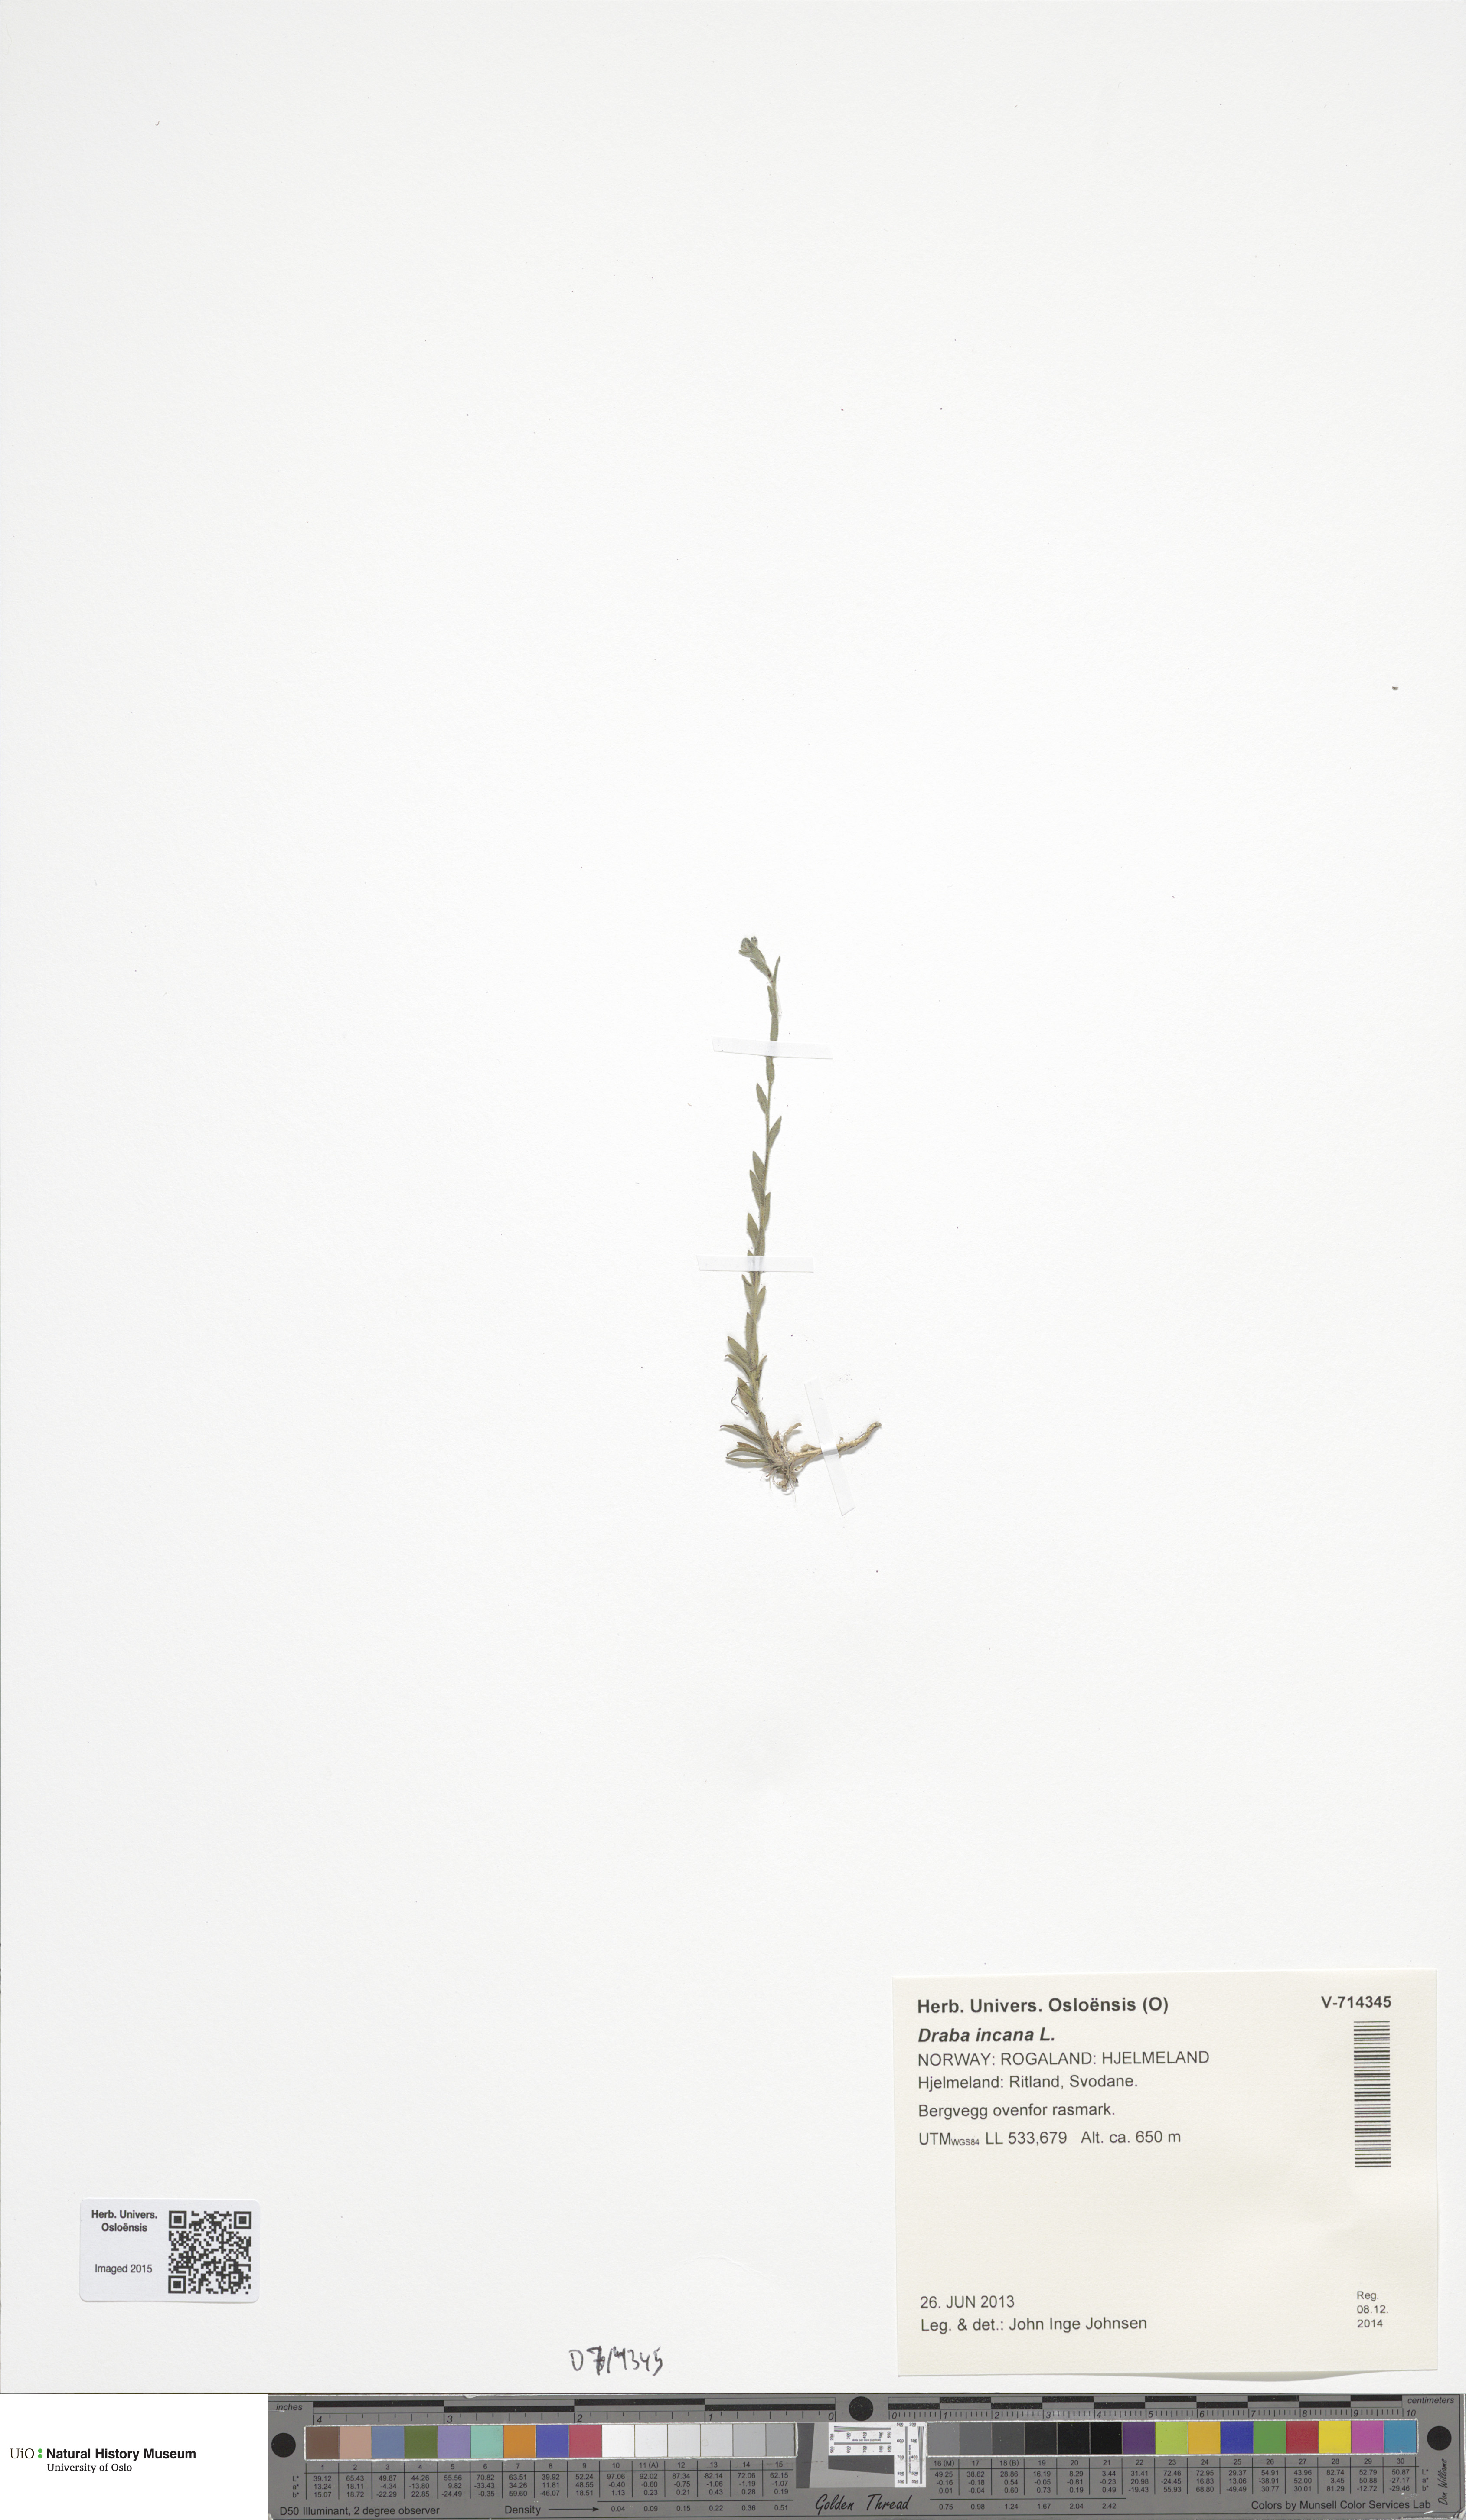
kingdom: Plantae
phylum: Tracheophyta
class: Magnoliopsida
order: Brassicales
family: Brassicaceae
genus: Draba
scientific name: Draba incana
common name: Hoary whitlow-grass
